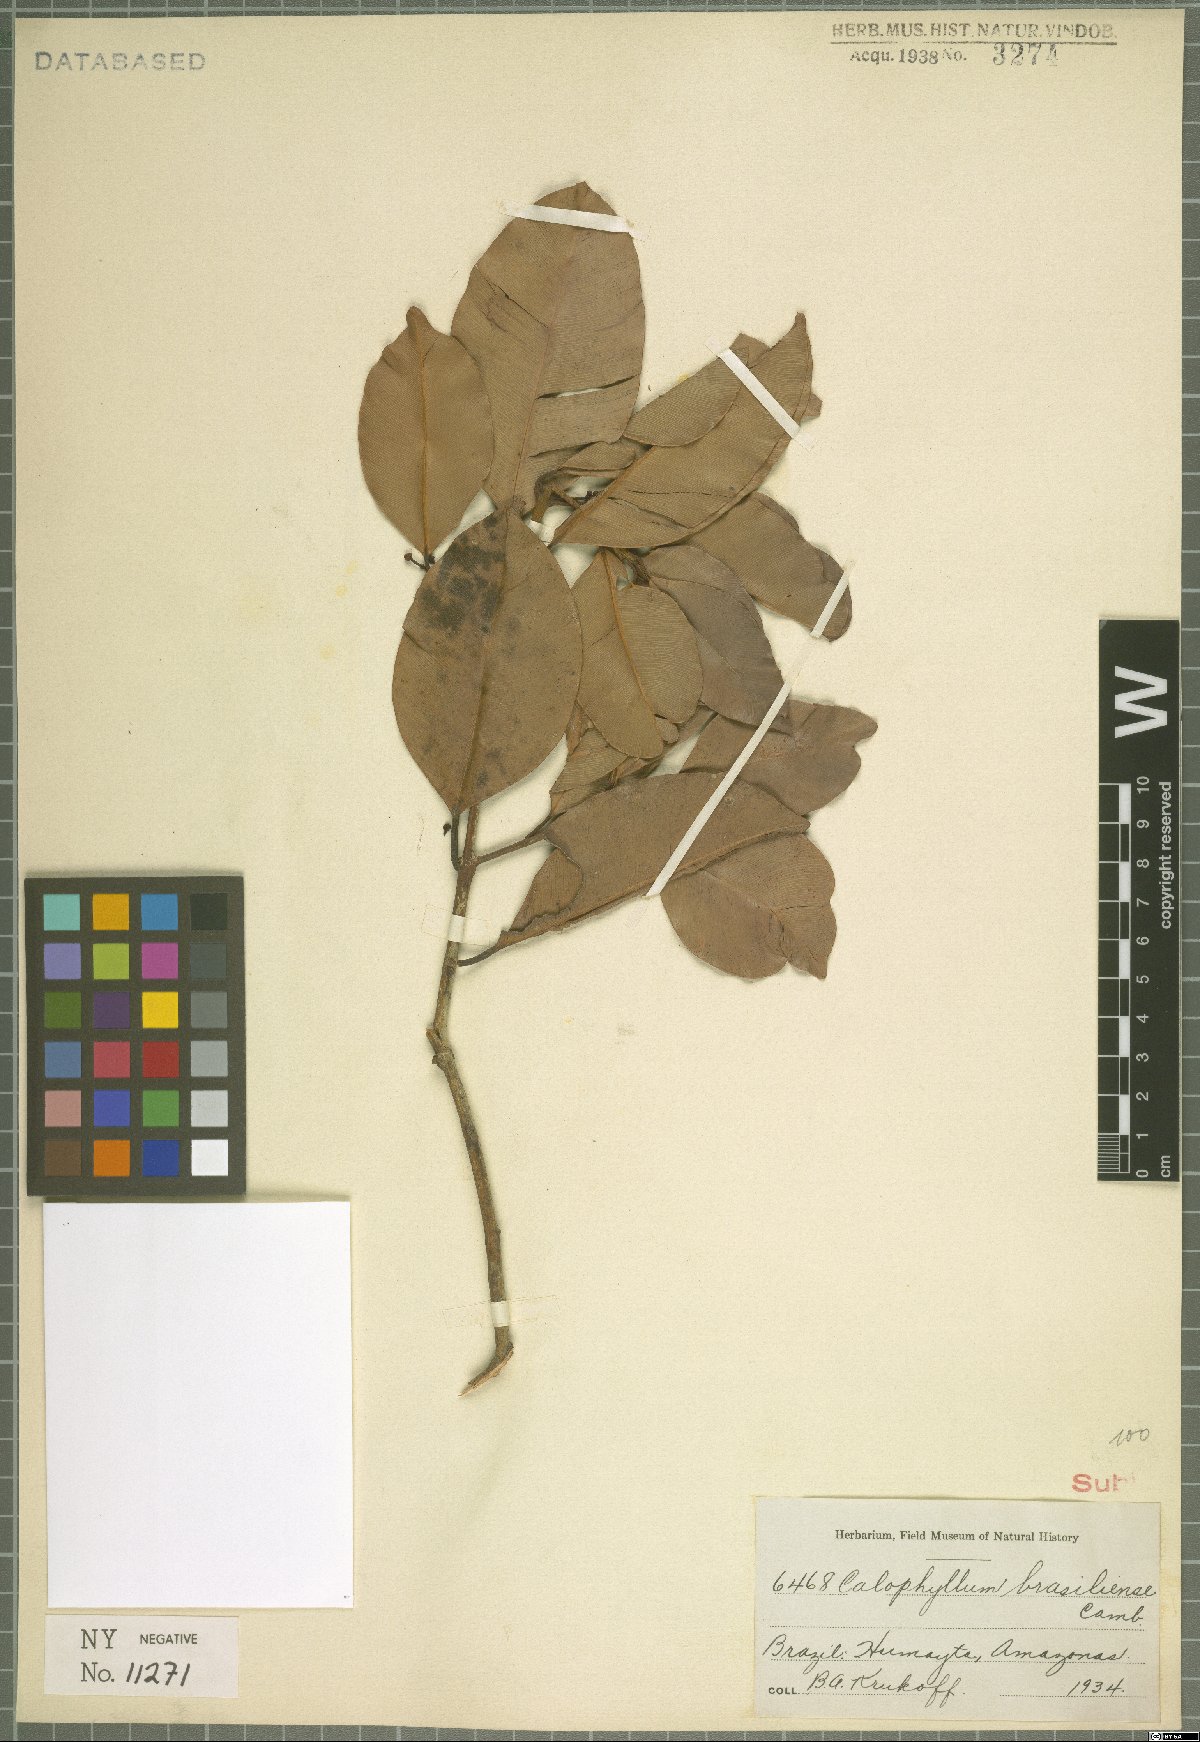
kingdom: Plantae
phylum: Tracheophyta
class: Magnoliopsida
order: Malpighiales
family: Calophyllaceae
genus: Calophyllum
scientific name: Calophyllum brasiliense
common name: Santa maria
